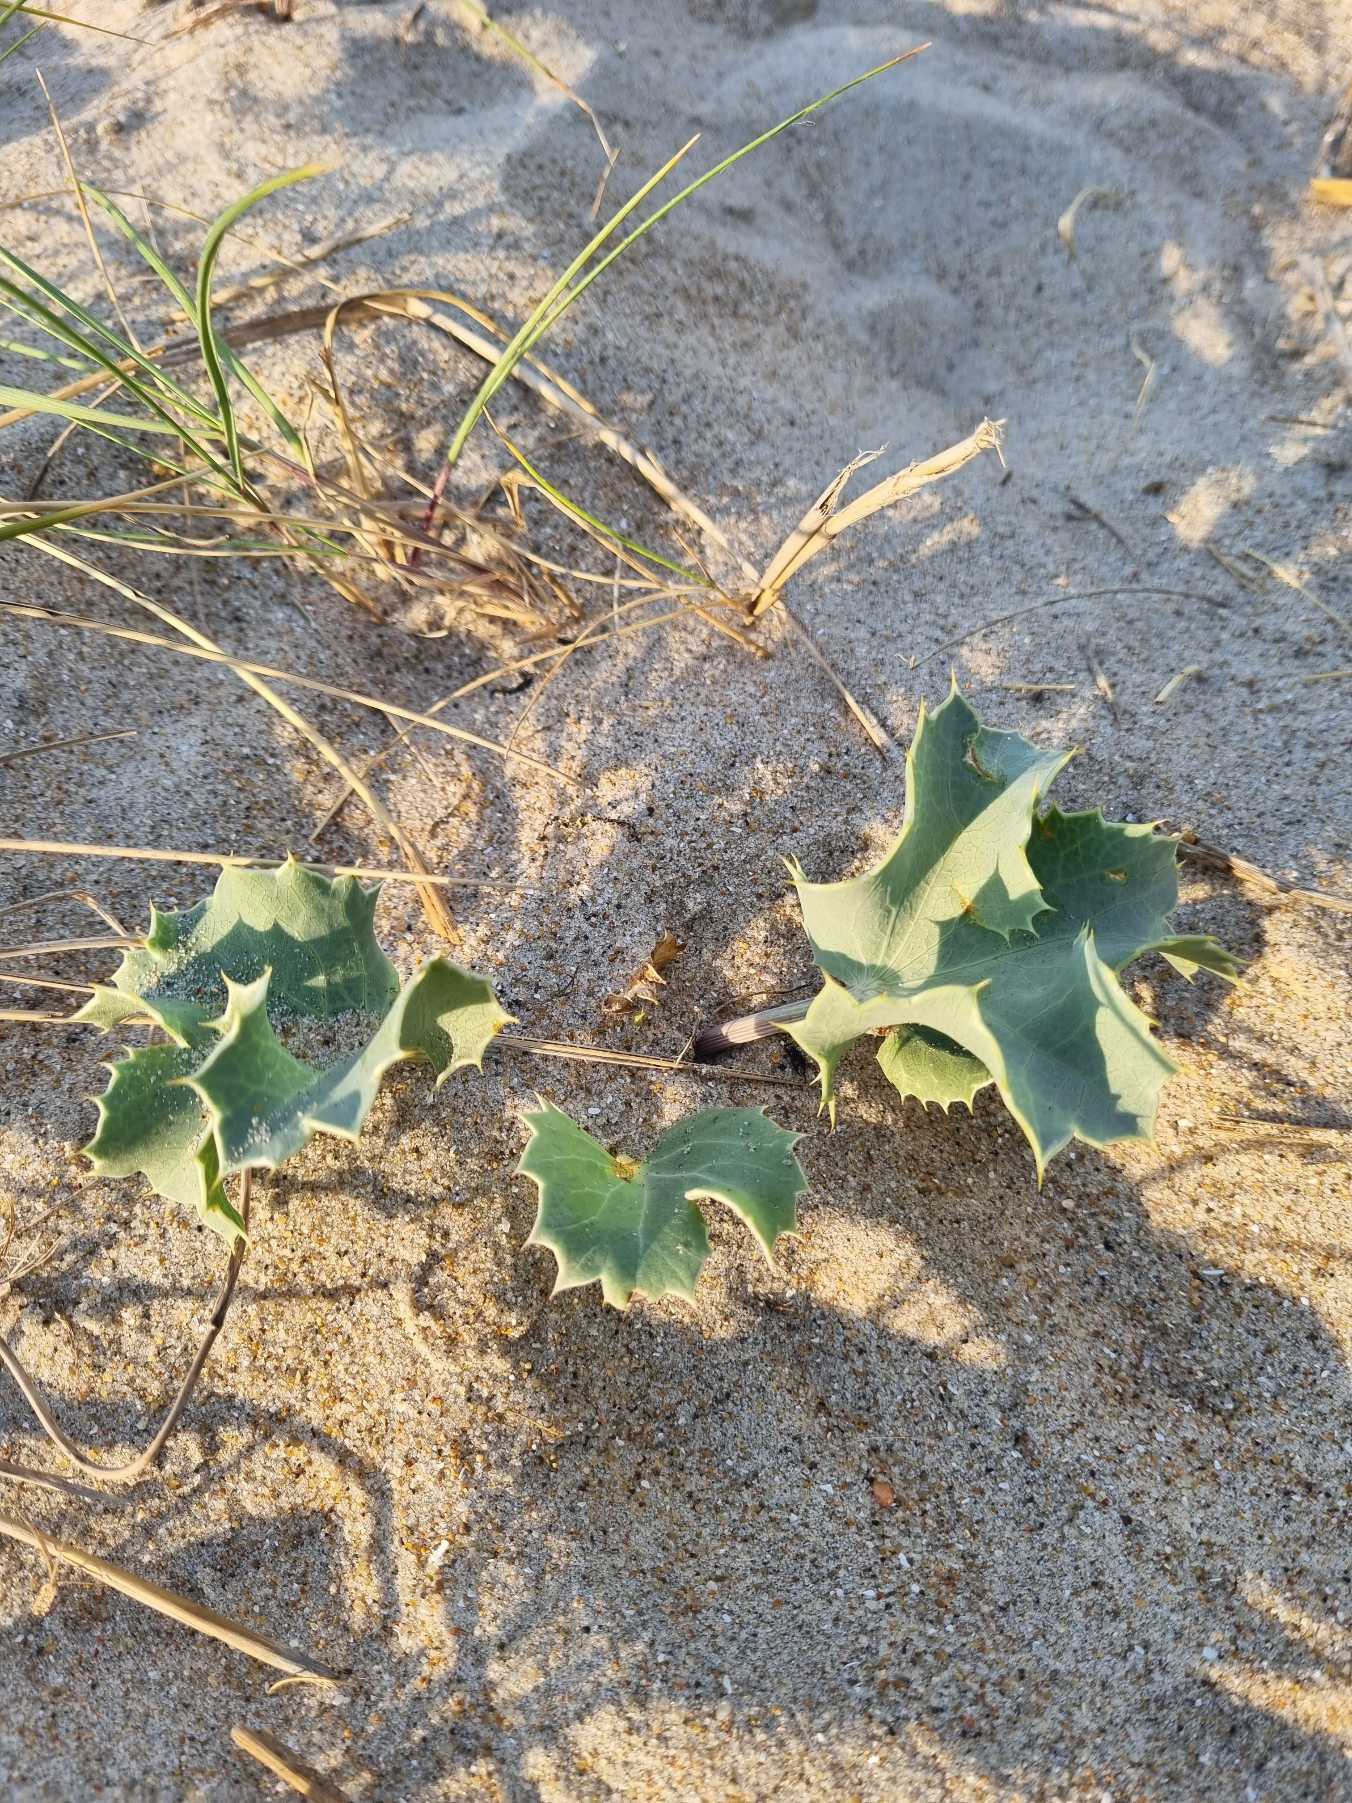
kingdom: Plantae
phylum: Tracheophyta
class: Magnoliopsida
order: Apiales
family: Apiaceae
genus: Eryngium
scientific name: Eryngium maritimum
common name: Strand-mandstro
